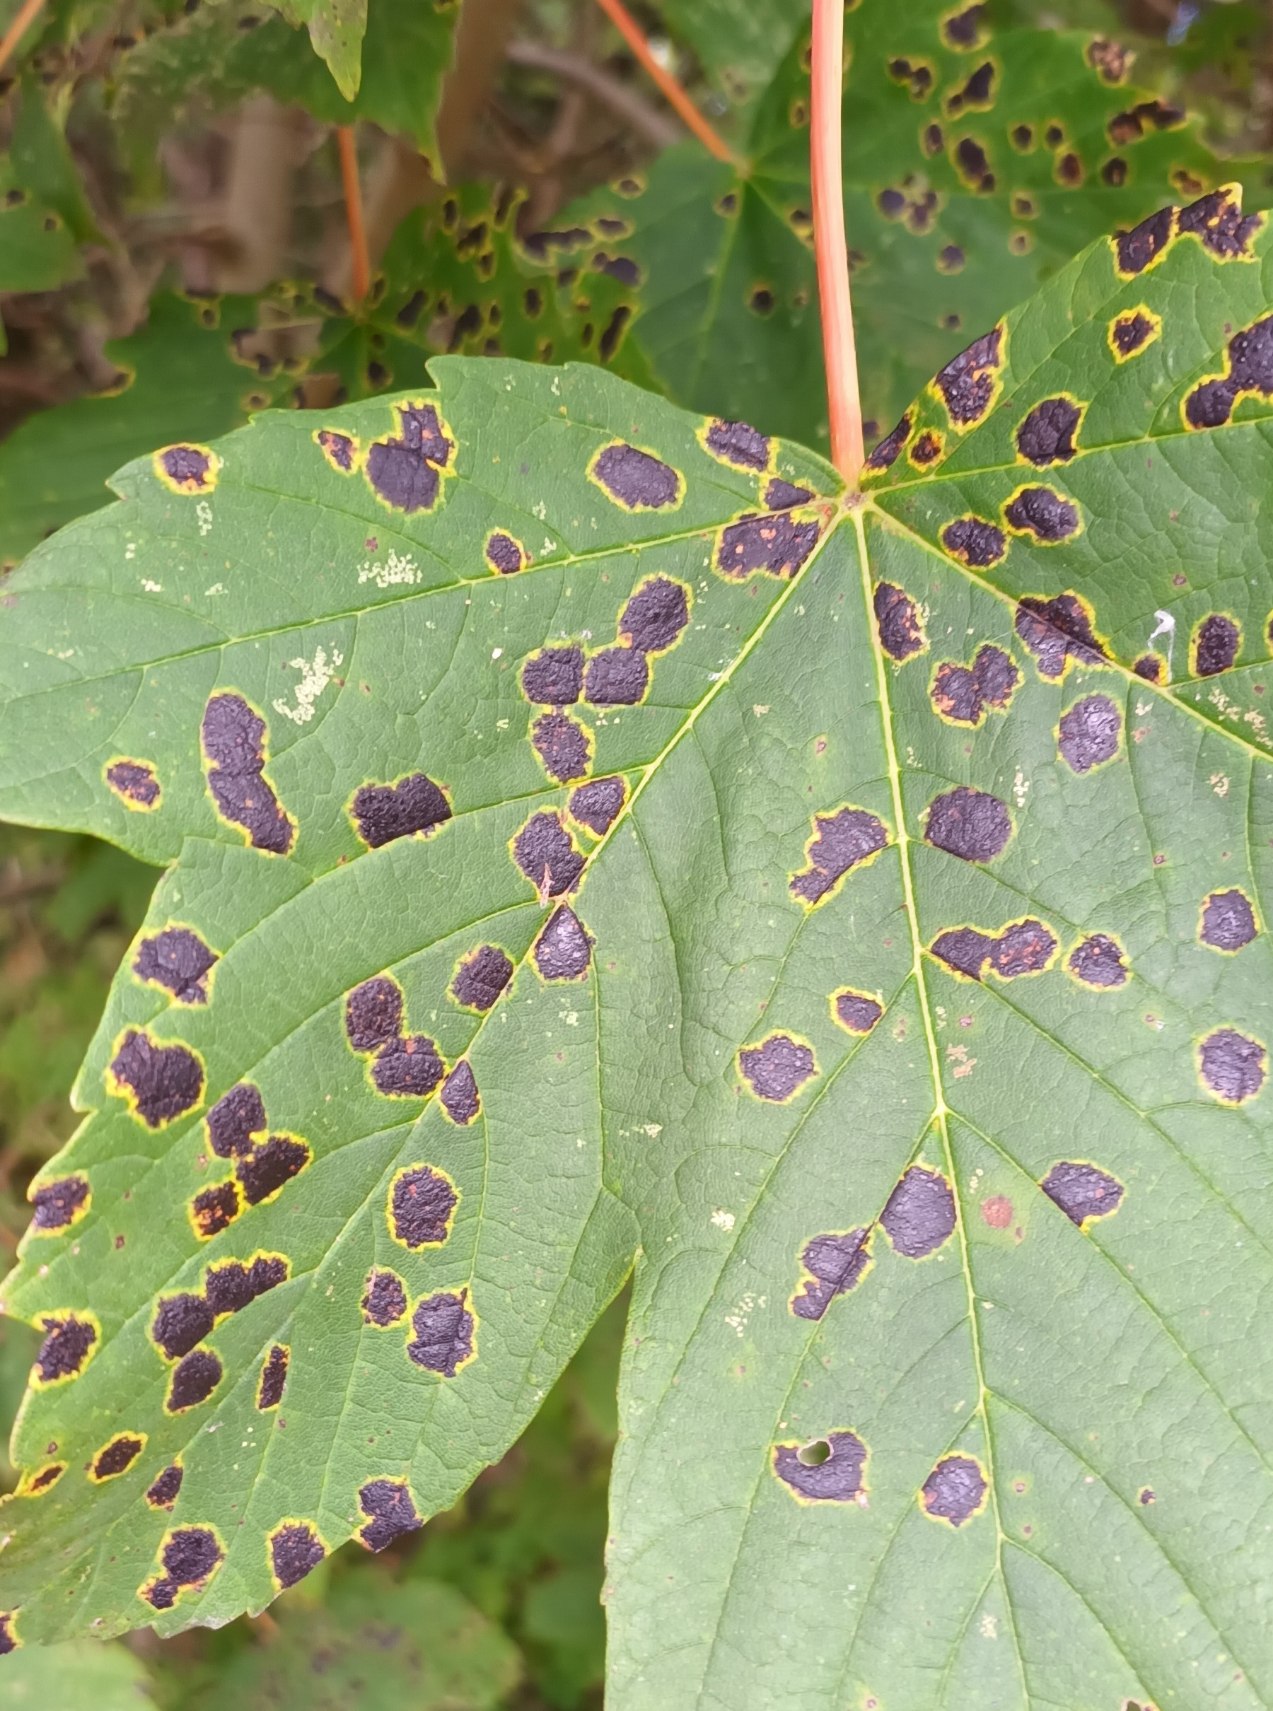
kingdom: Fungi
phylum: Ascomycota
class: Leotiomycetes
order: Rhytismatales
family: Rhytismataceae
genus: Rhytisma
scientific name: Rhytisma acerinum
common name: Ahorn-rynkeplet
